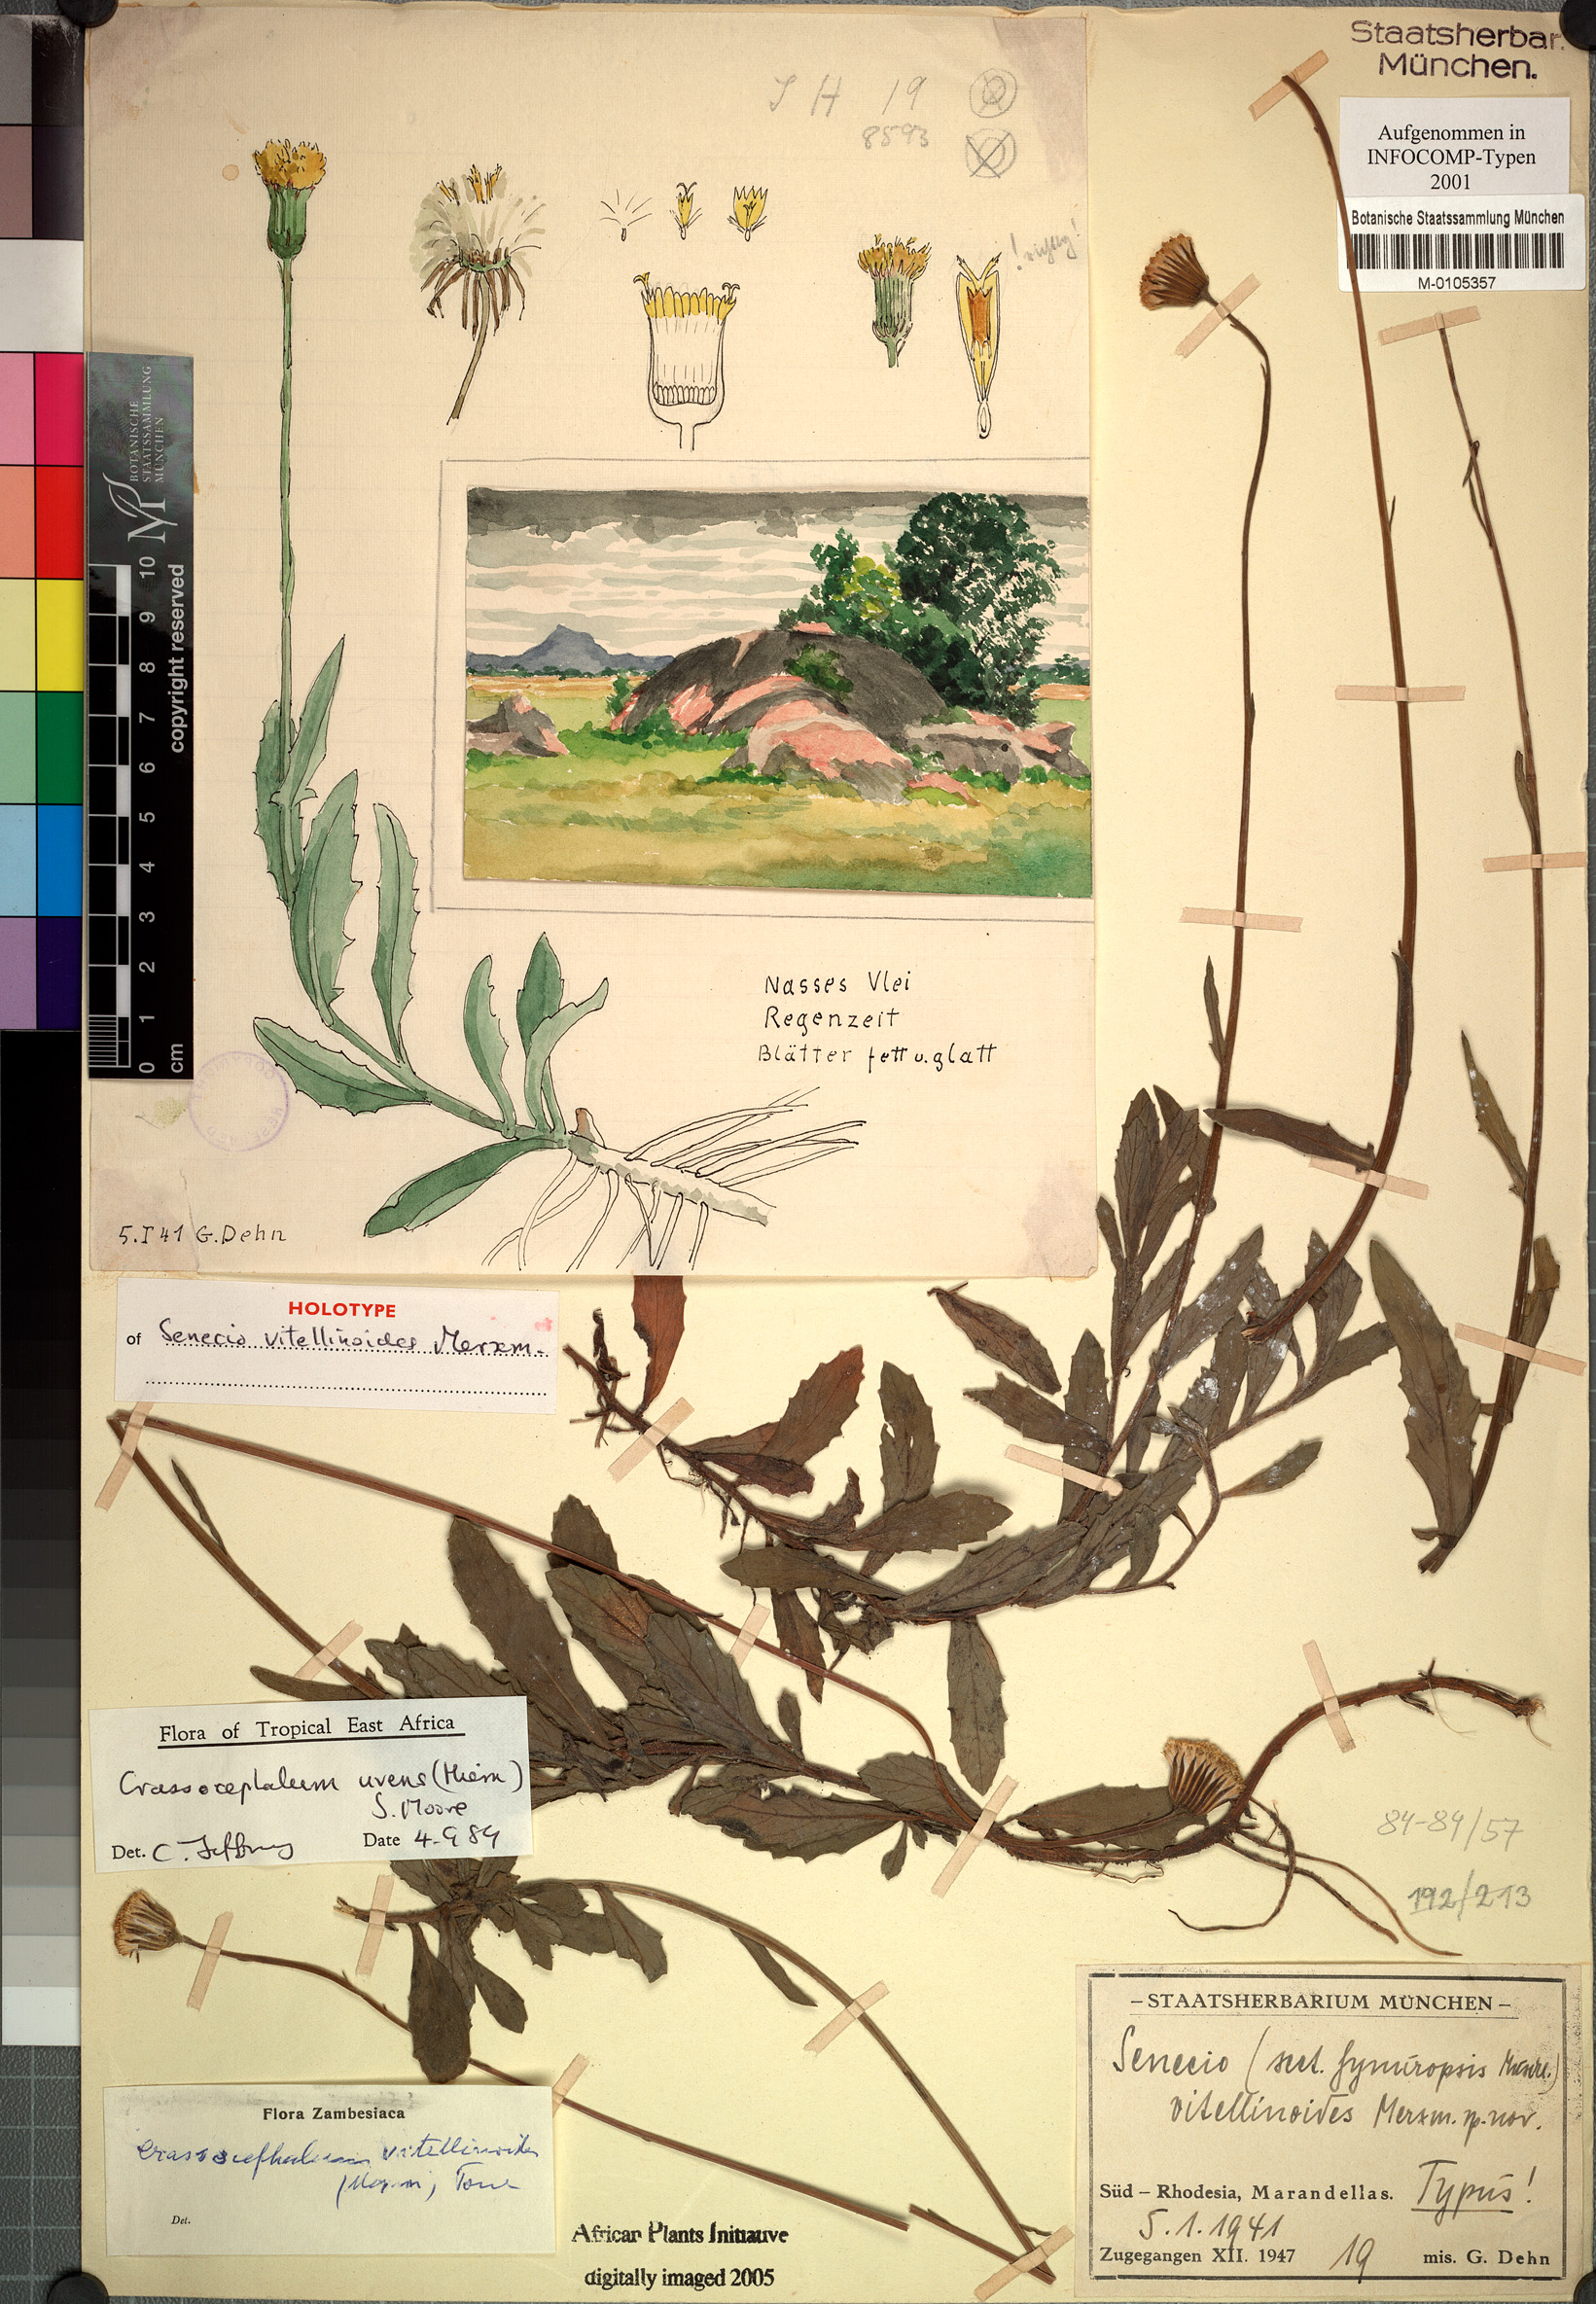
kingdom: Plantae
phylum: Tracheophyta
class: Magnoliopsida
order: Asterales
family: Asteraceae
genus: Crassocephalum
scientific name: Crassocephalum uvens
